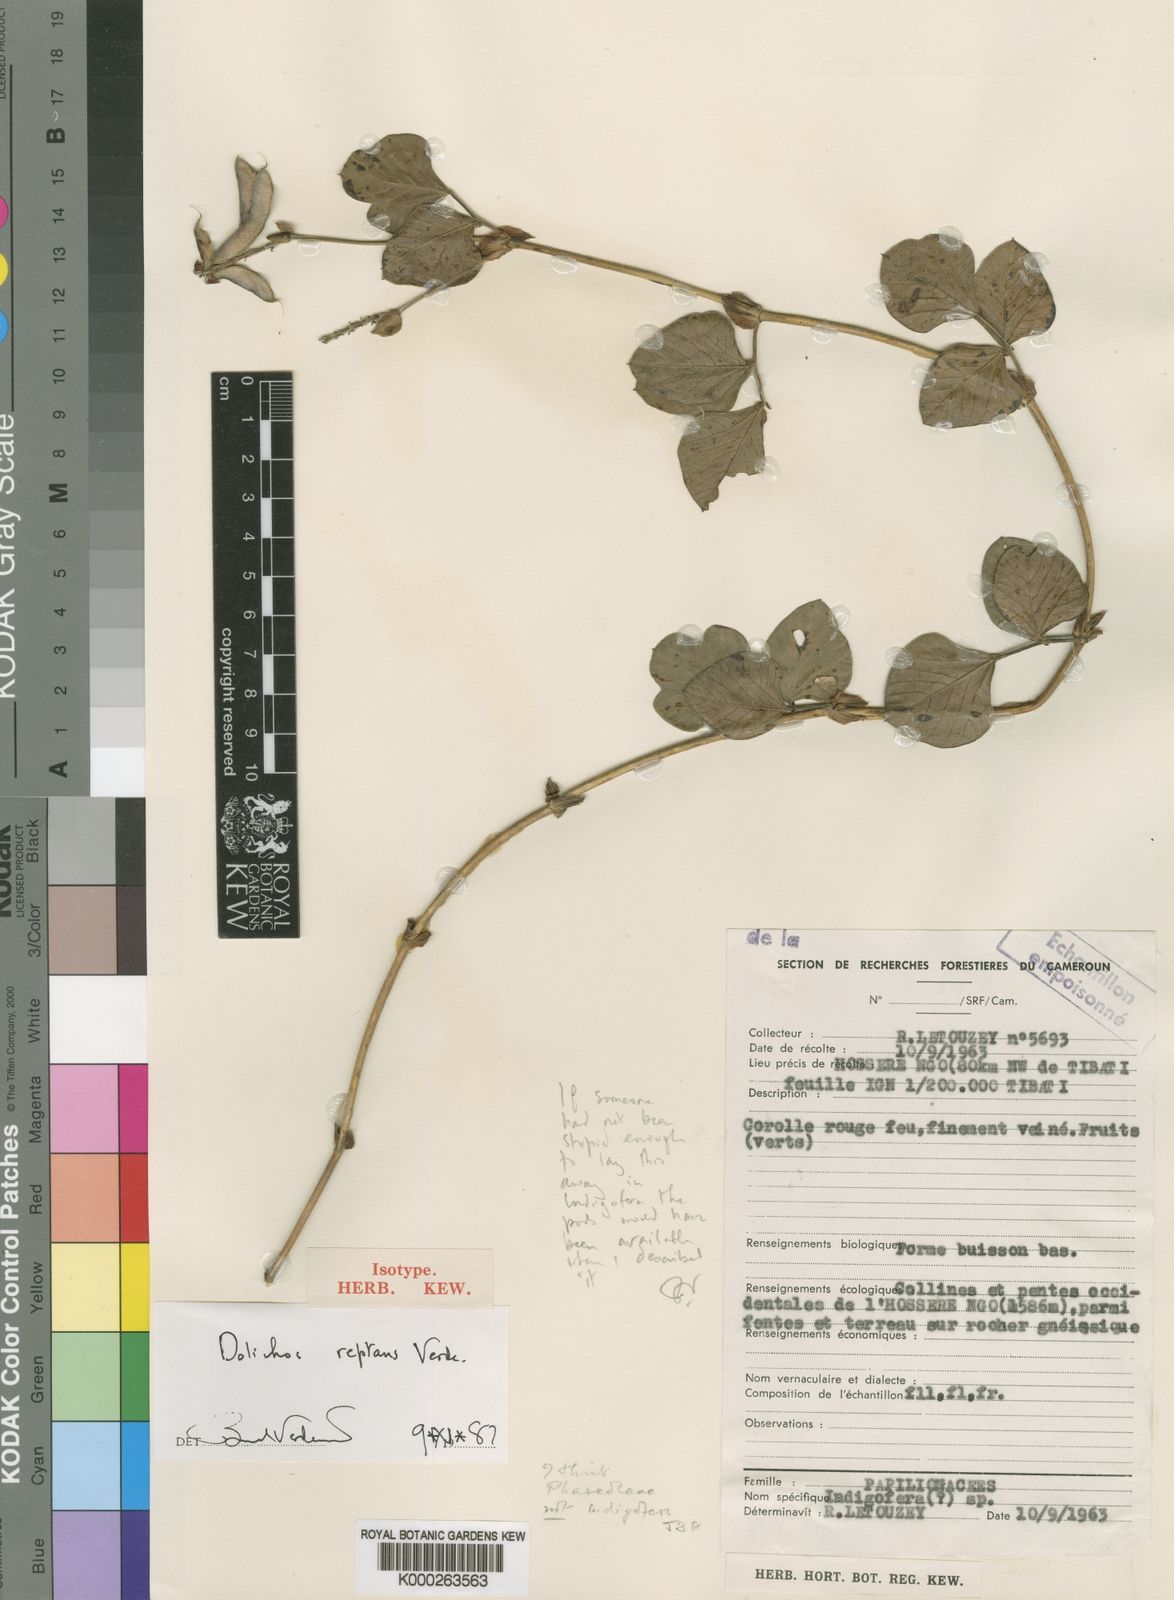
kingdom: Plantae
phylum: Tracheophyta
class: Magnoliopsida
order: Fabales
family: Fabaceae
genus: Dolichos
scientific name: Dolichos reptans
